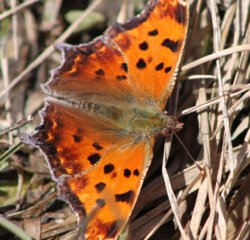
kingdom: Animalia
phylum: Arthropoda
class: Insecta
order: Lepidoptera
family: Nymphalidae
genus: Polygonia
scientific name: Polygonia comma
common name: Eastern Comma
